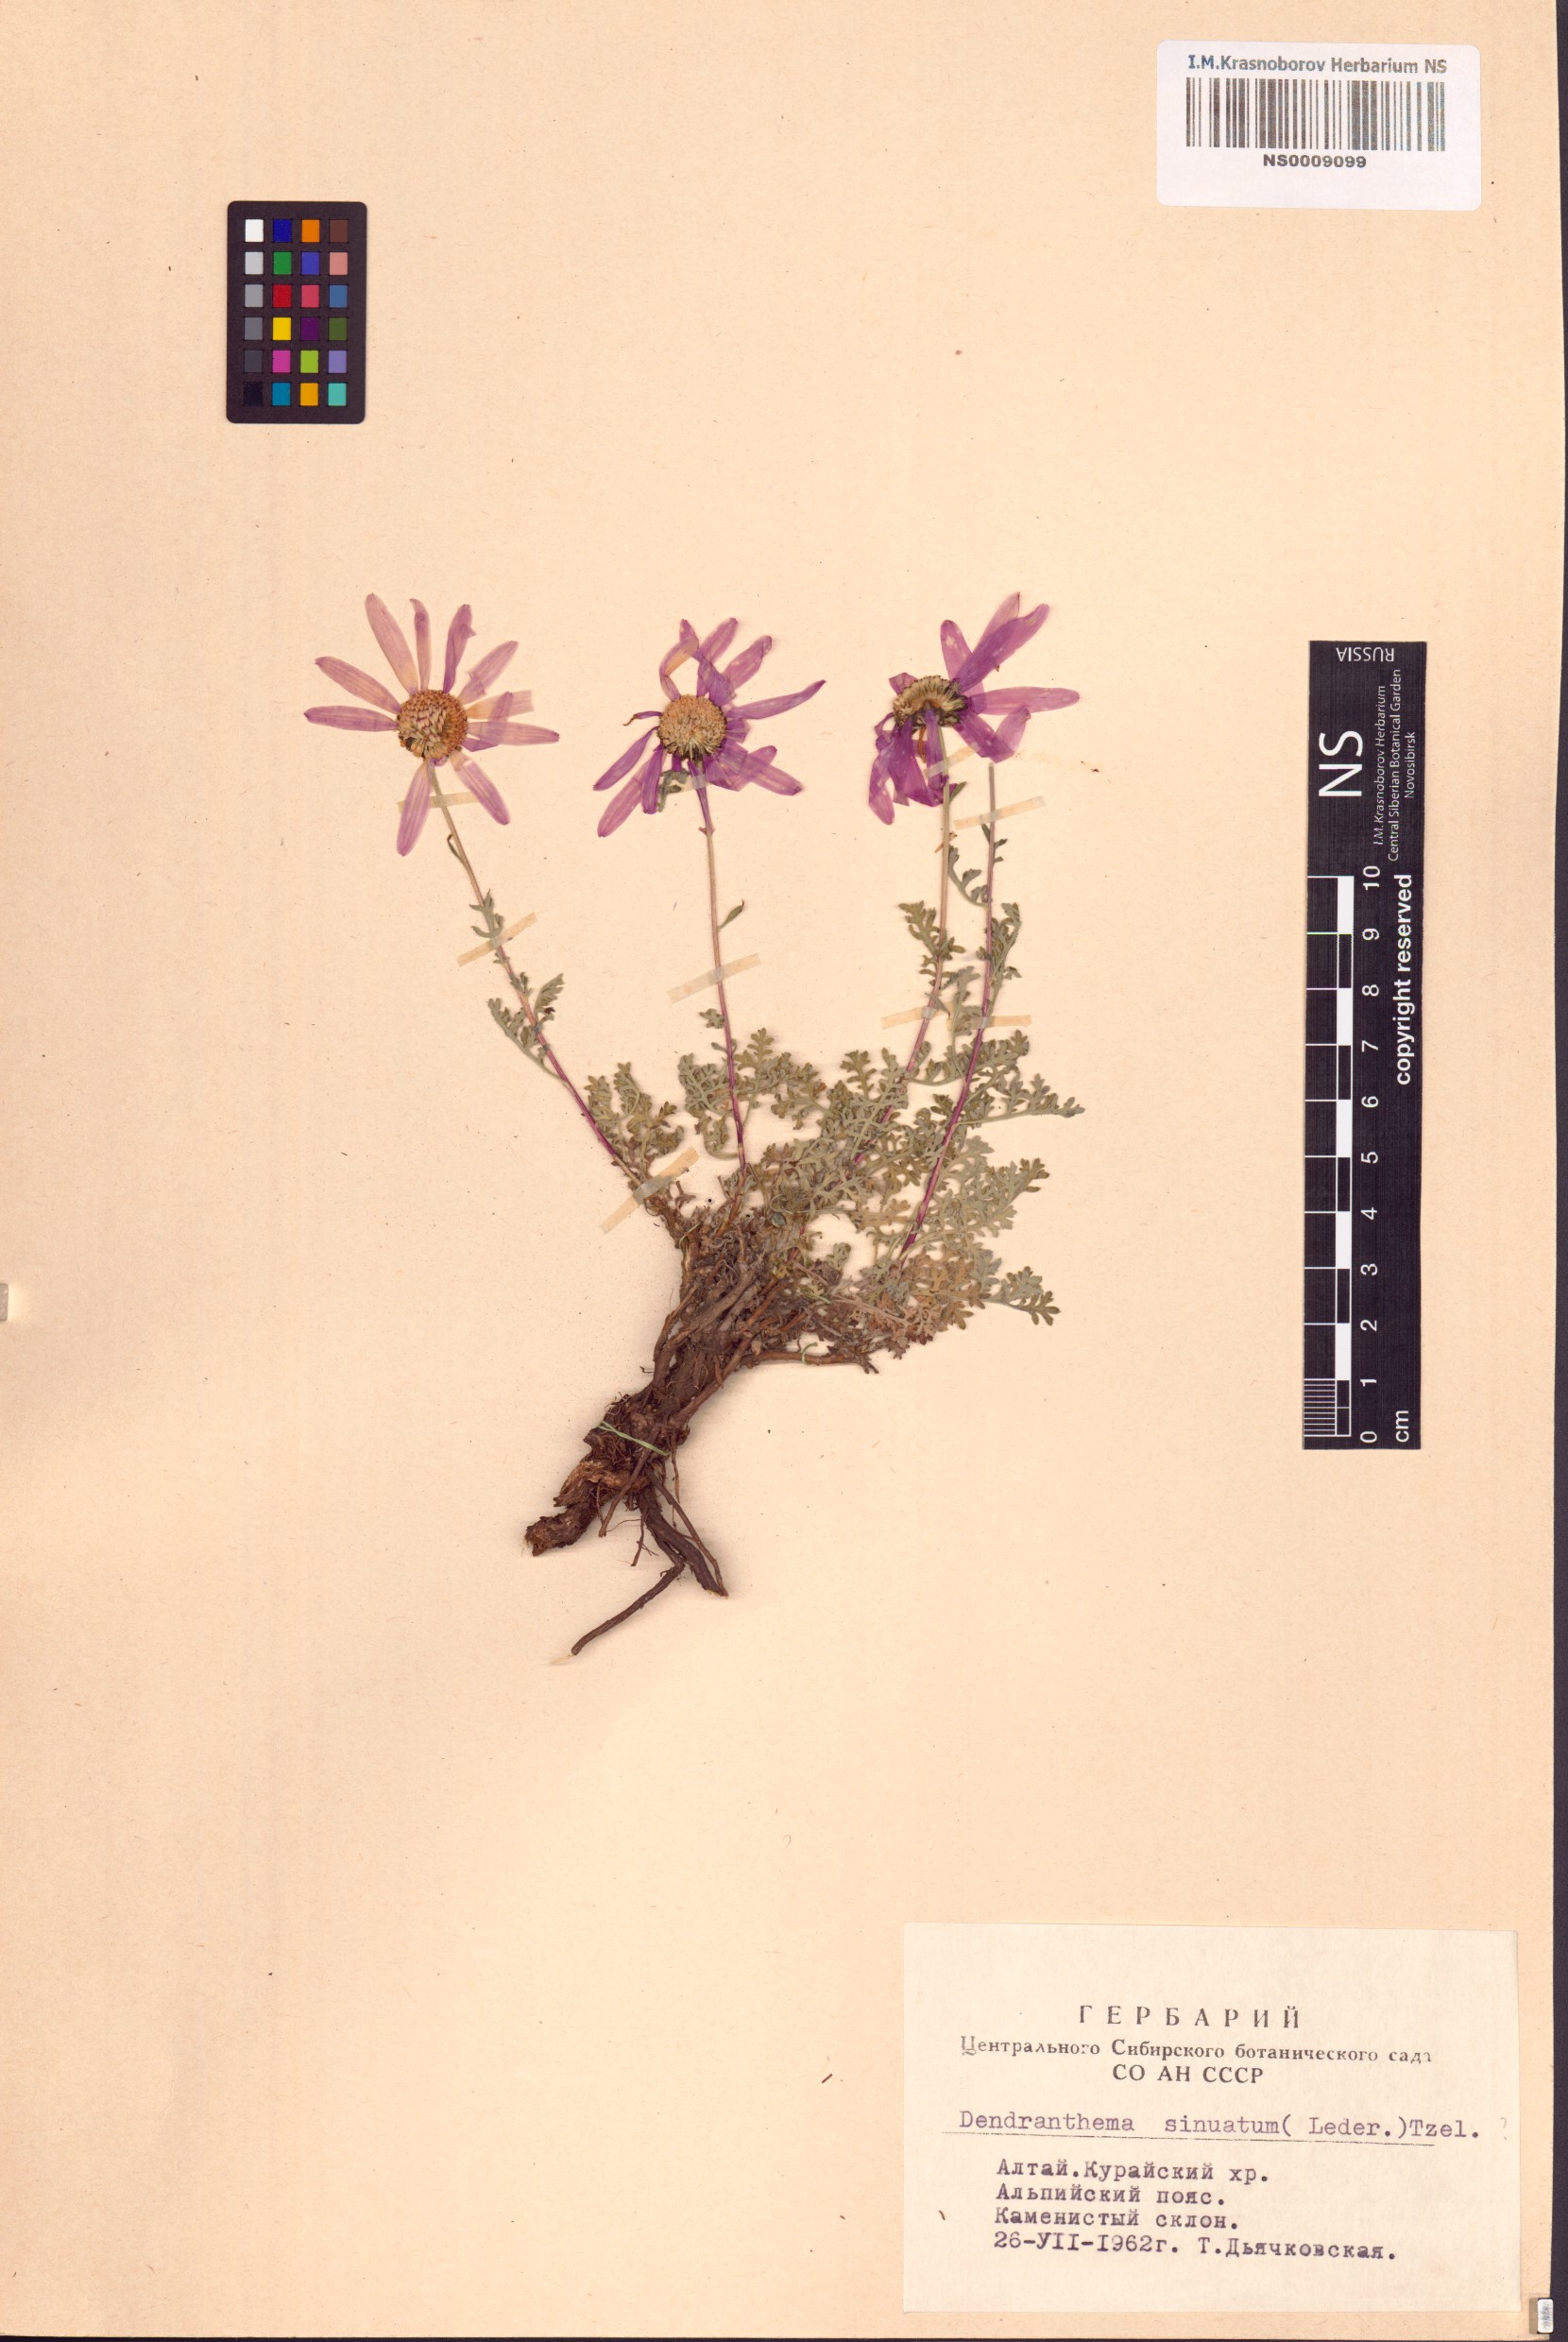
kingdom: Plantae
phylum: Tracheophyta
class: Magnoliopsida
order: Asterales
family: Asteraceae
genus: Chrysanthemum
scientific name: Chrysanthemum sinuatum
